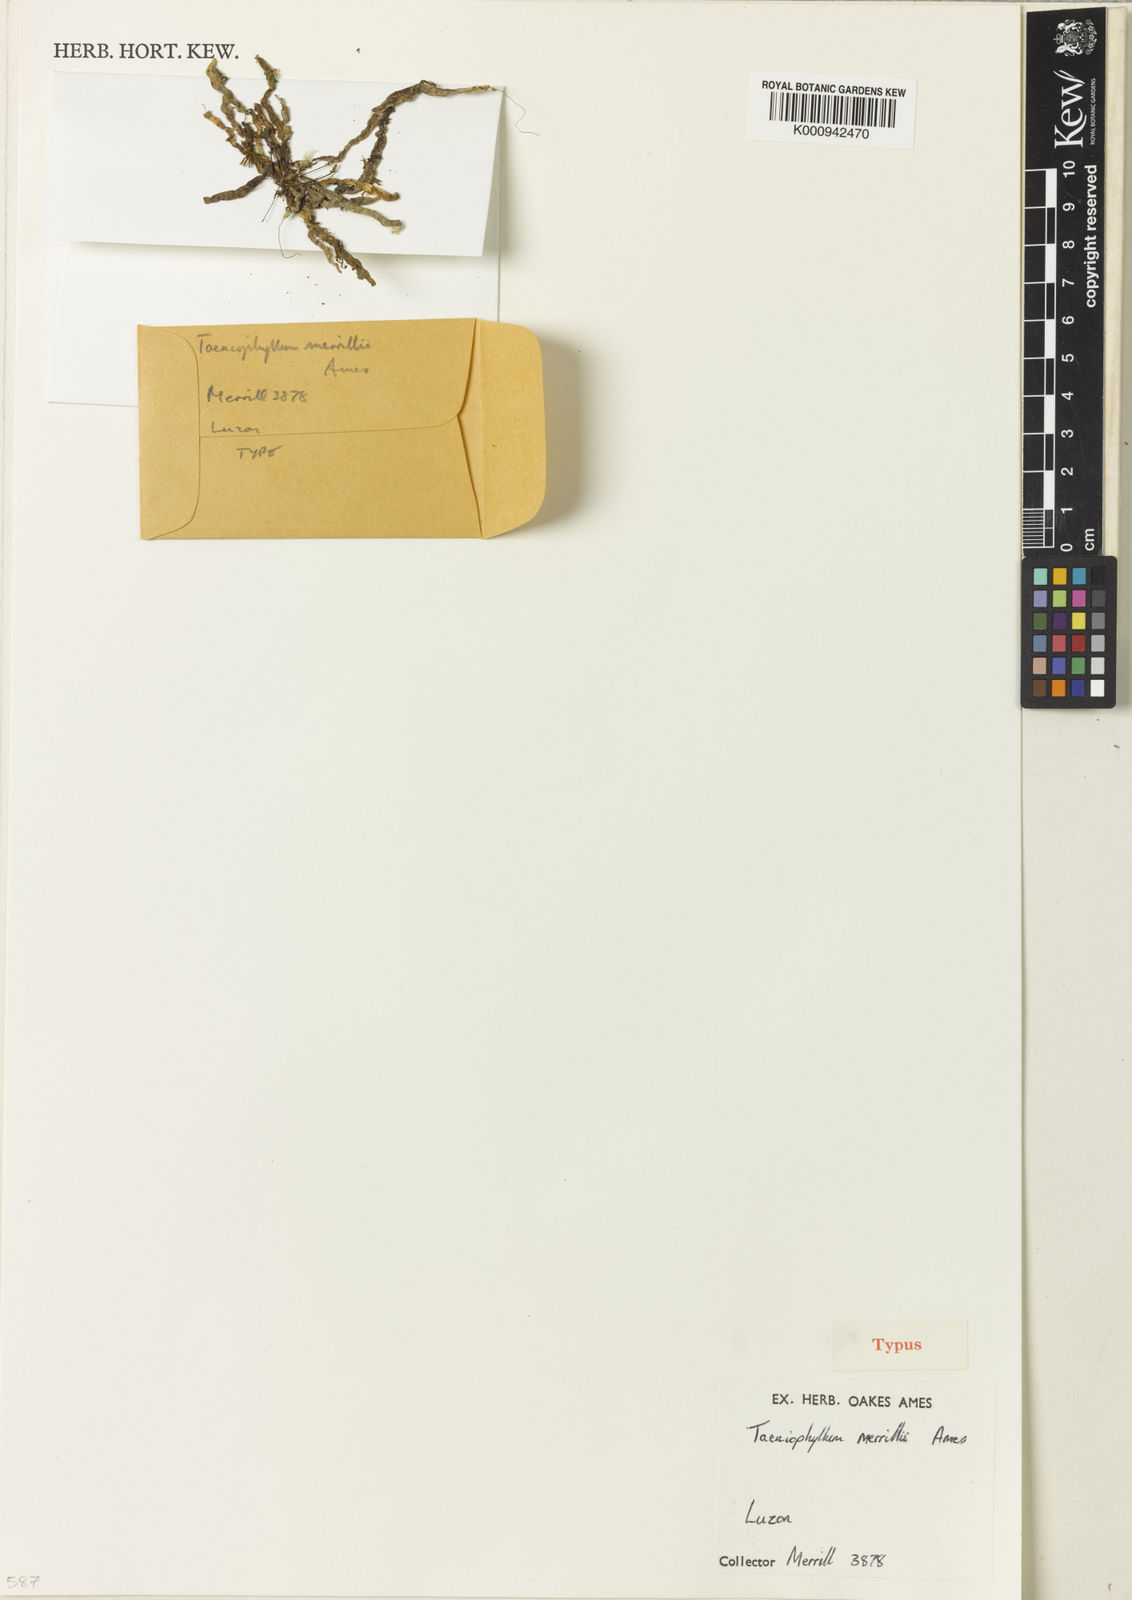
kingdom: Plantae
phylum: Tracheophyta
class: Liliopsida
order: Asparagales
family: Orchidaceae
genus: Taeniophyllum
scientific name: Taeniophyllum merrillii
